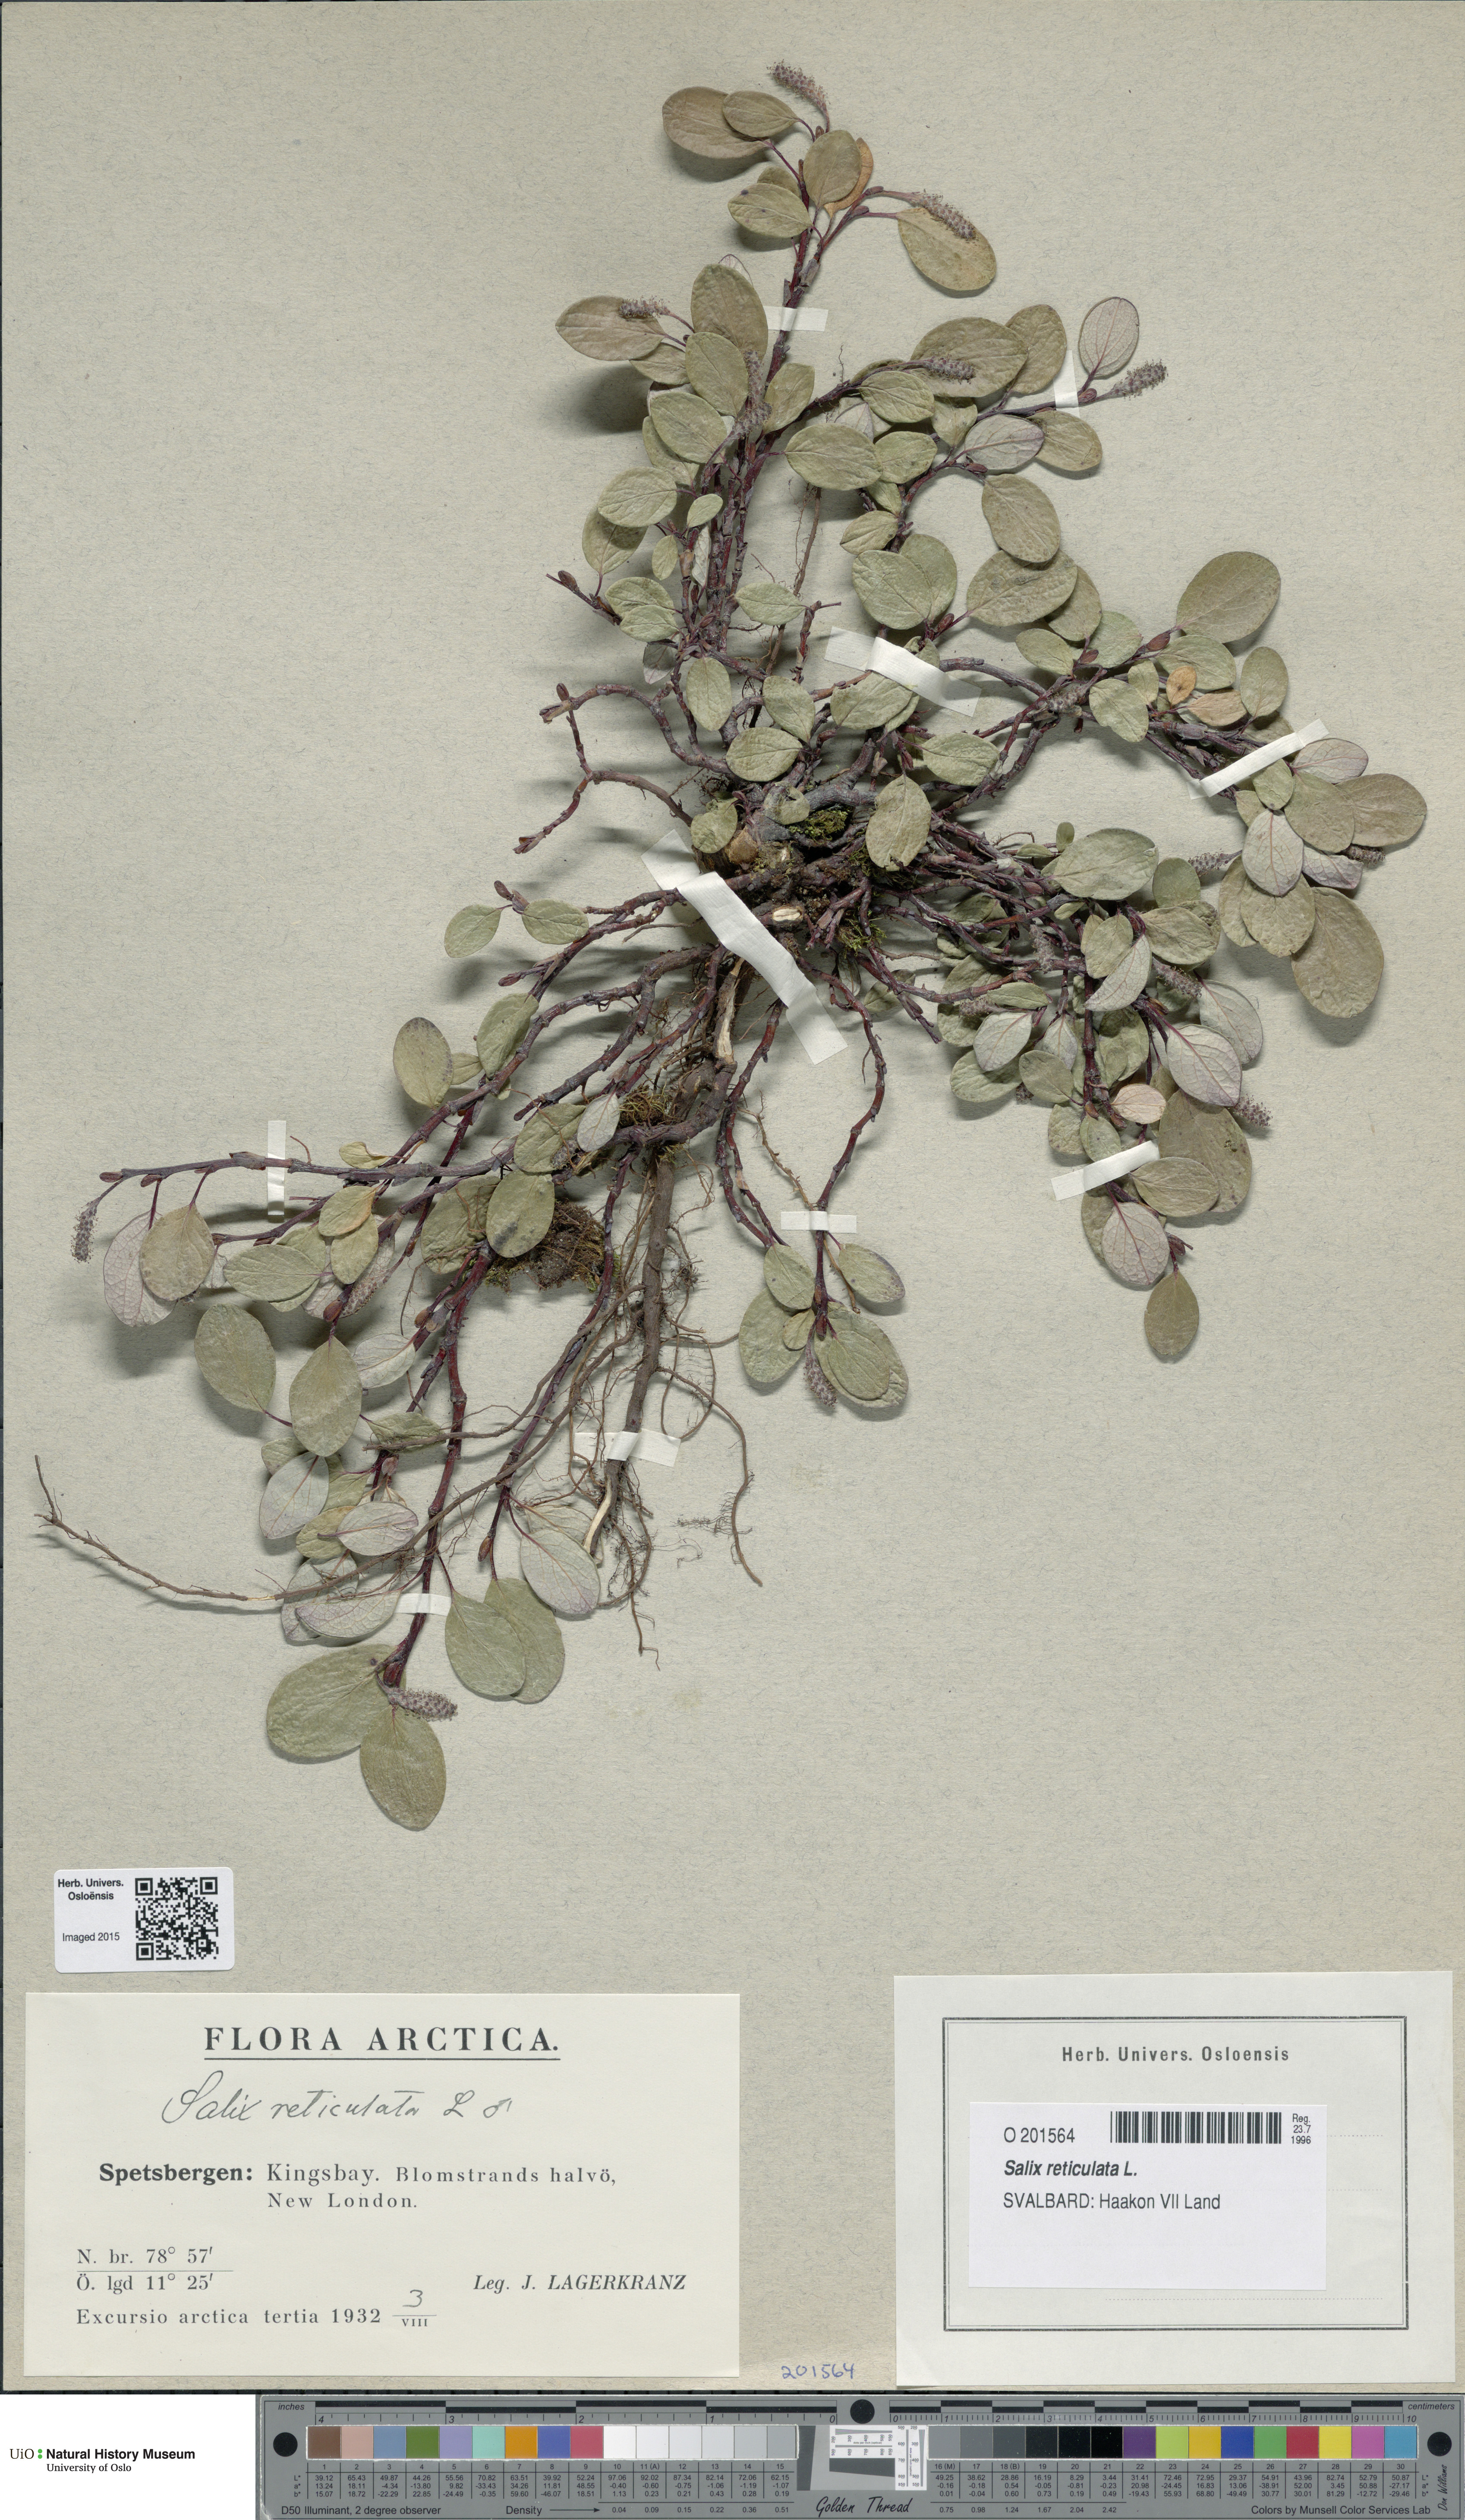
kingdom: Plantae
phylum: Tracheophyta
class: Magnoliopsida
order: Malpighiales
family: Salicaceae
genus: Salix
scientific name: Salix reticulata
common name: Net-leaved willow
